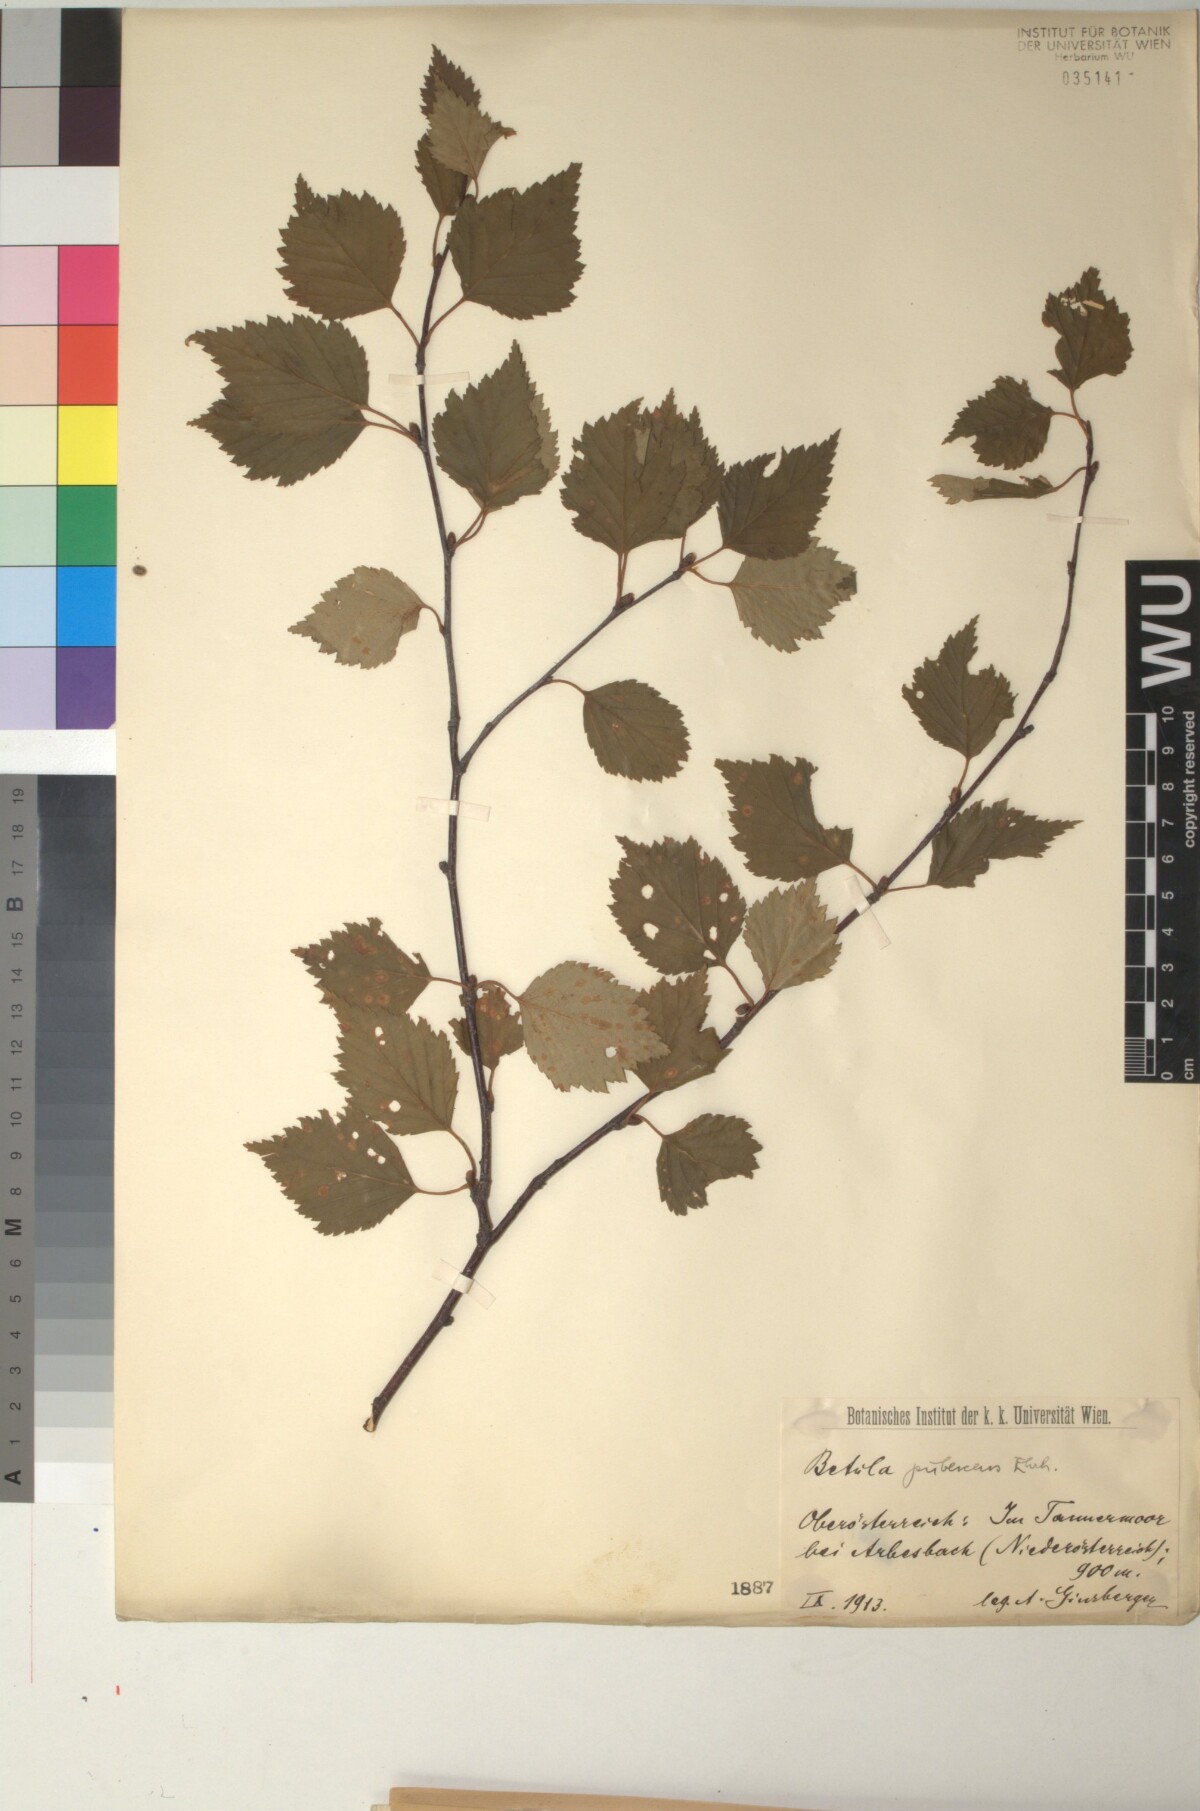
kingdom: Plantae
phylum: Tracheophyta
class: Magnoliopsida
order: Fagales
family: Betulaceae
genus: Betula
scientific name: Betula pubescens
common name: Downy birch
